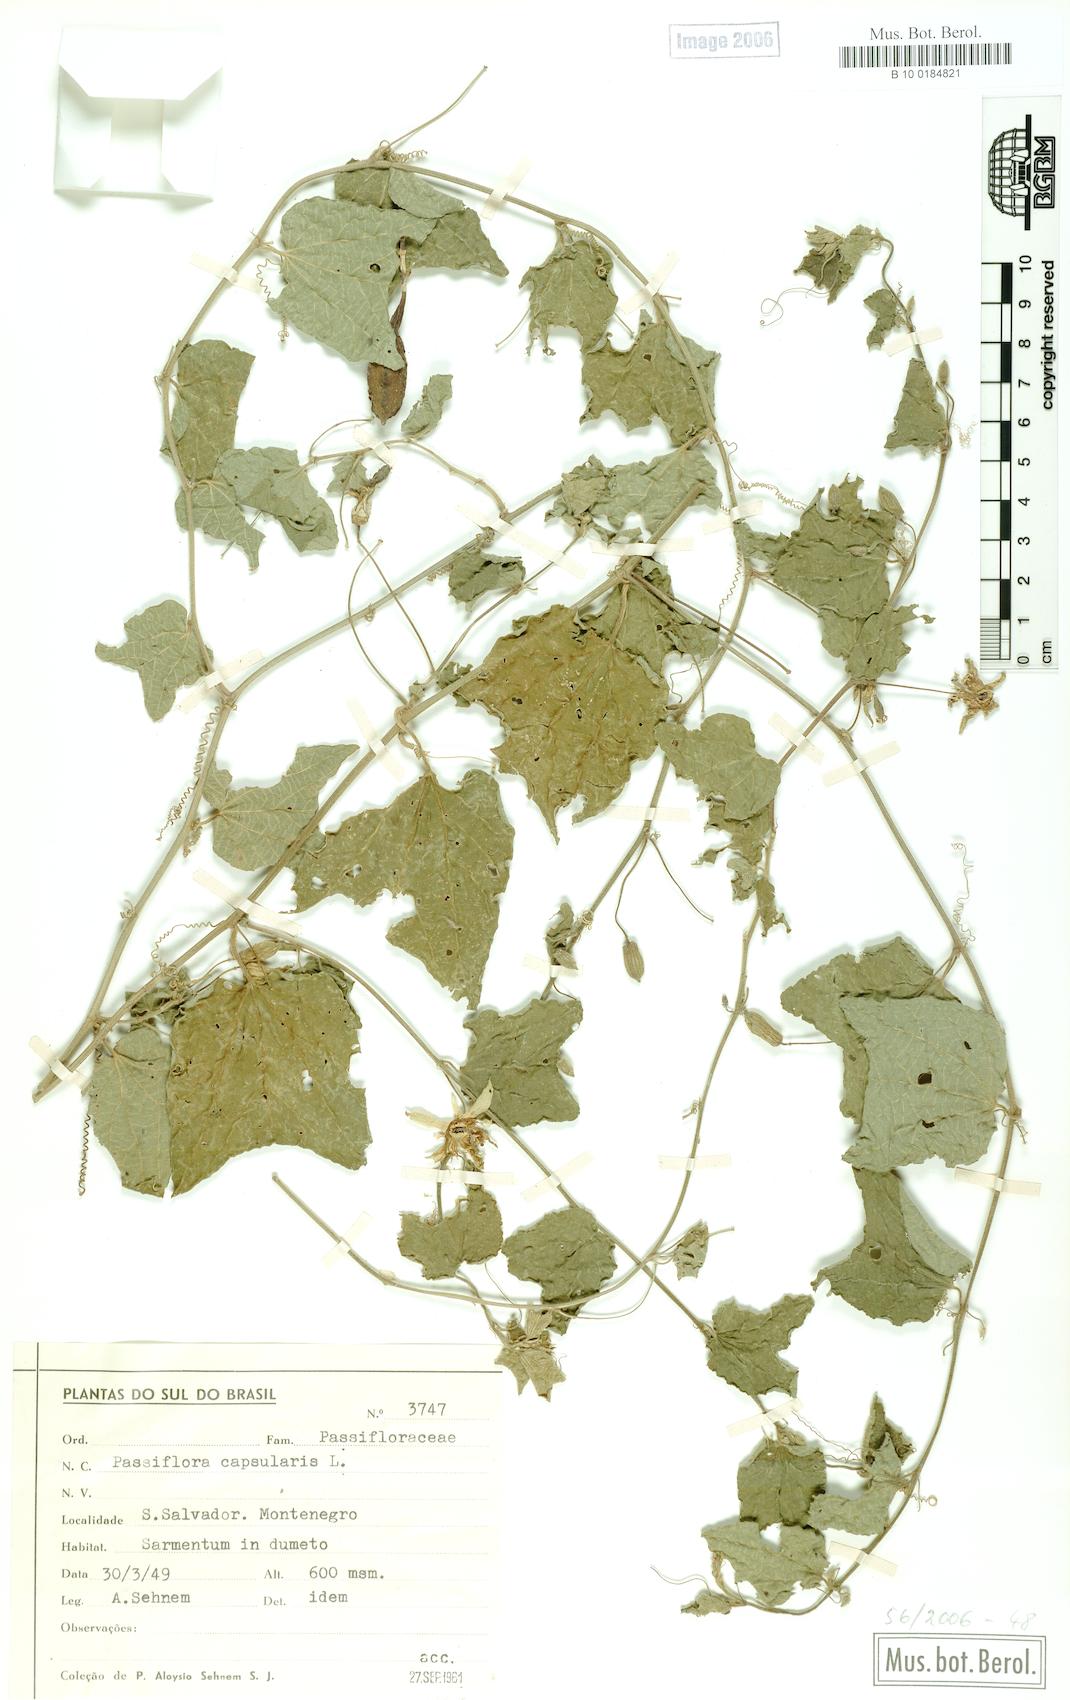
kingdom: Plantae
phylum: Tracheophyta
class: Magnoliopsida
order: Malpighiales
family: Passifloraceae
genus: Passiflora
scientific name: Passiflora capsularis
